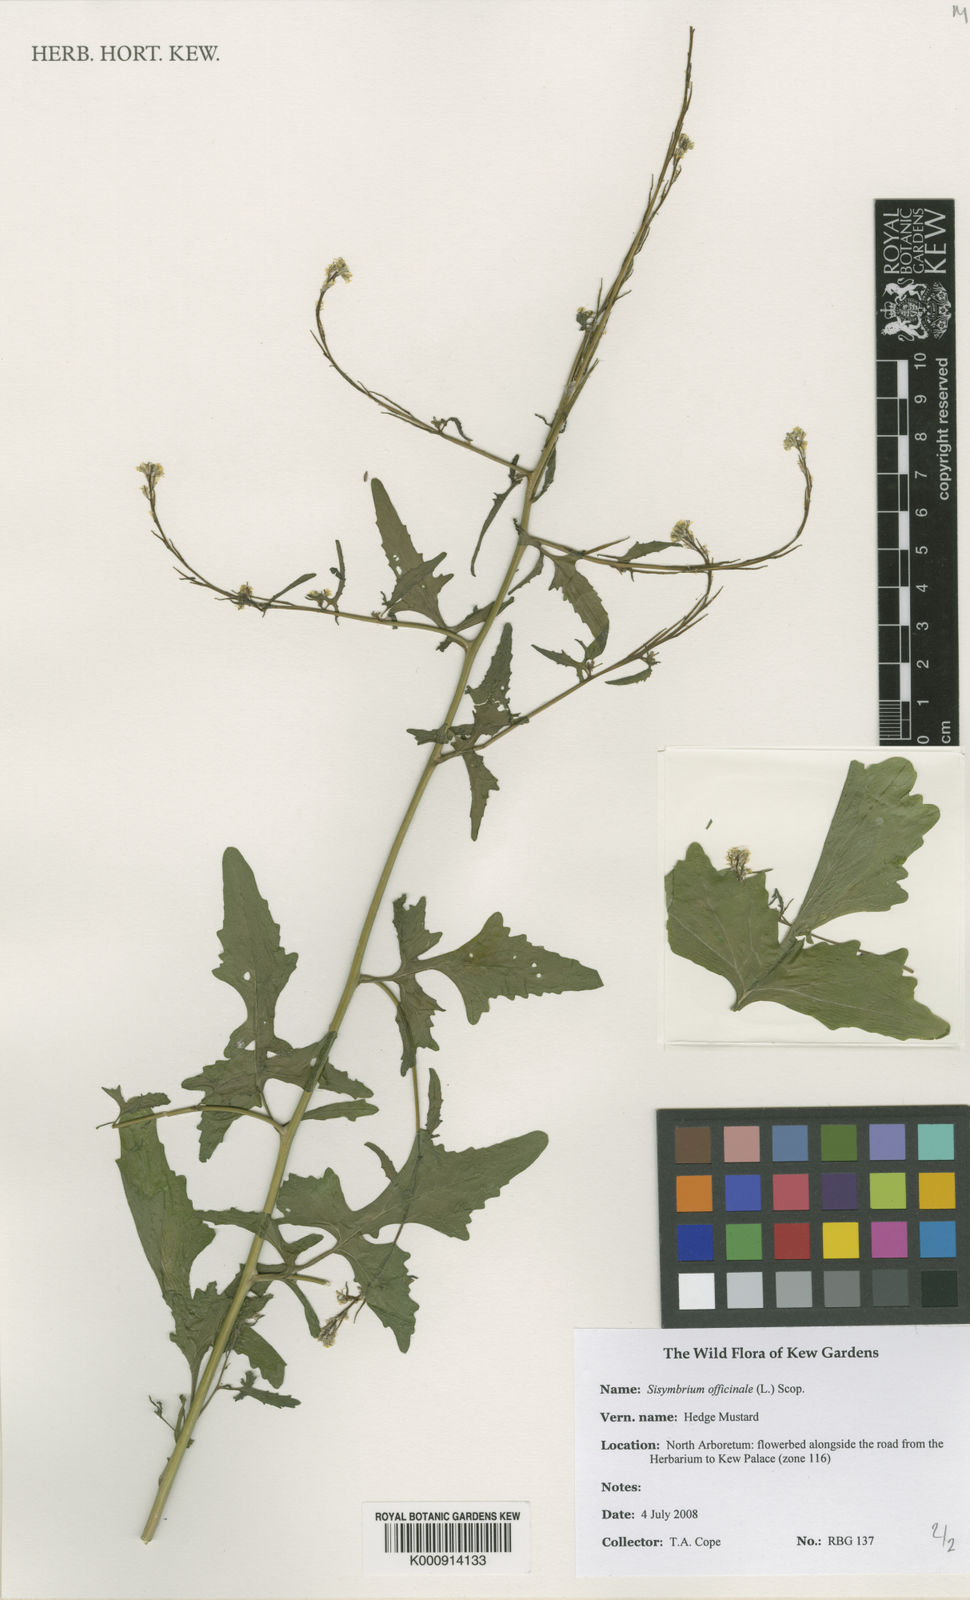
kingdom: Plantae
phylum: Tracheophyta
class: Magnoliopsida
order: Brassicales
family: Brassicaceae
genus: Sisymbrium
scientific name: Sisymbrium officinale
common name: Hedge mustard
